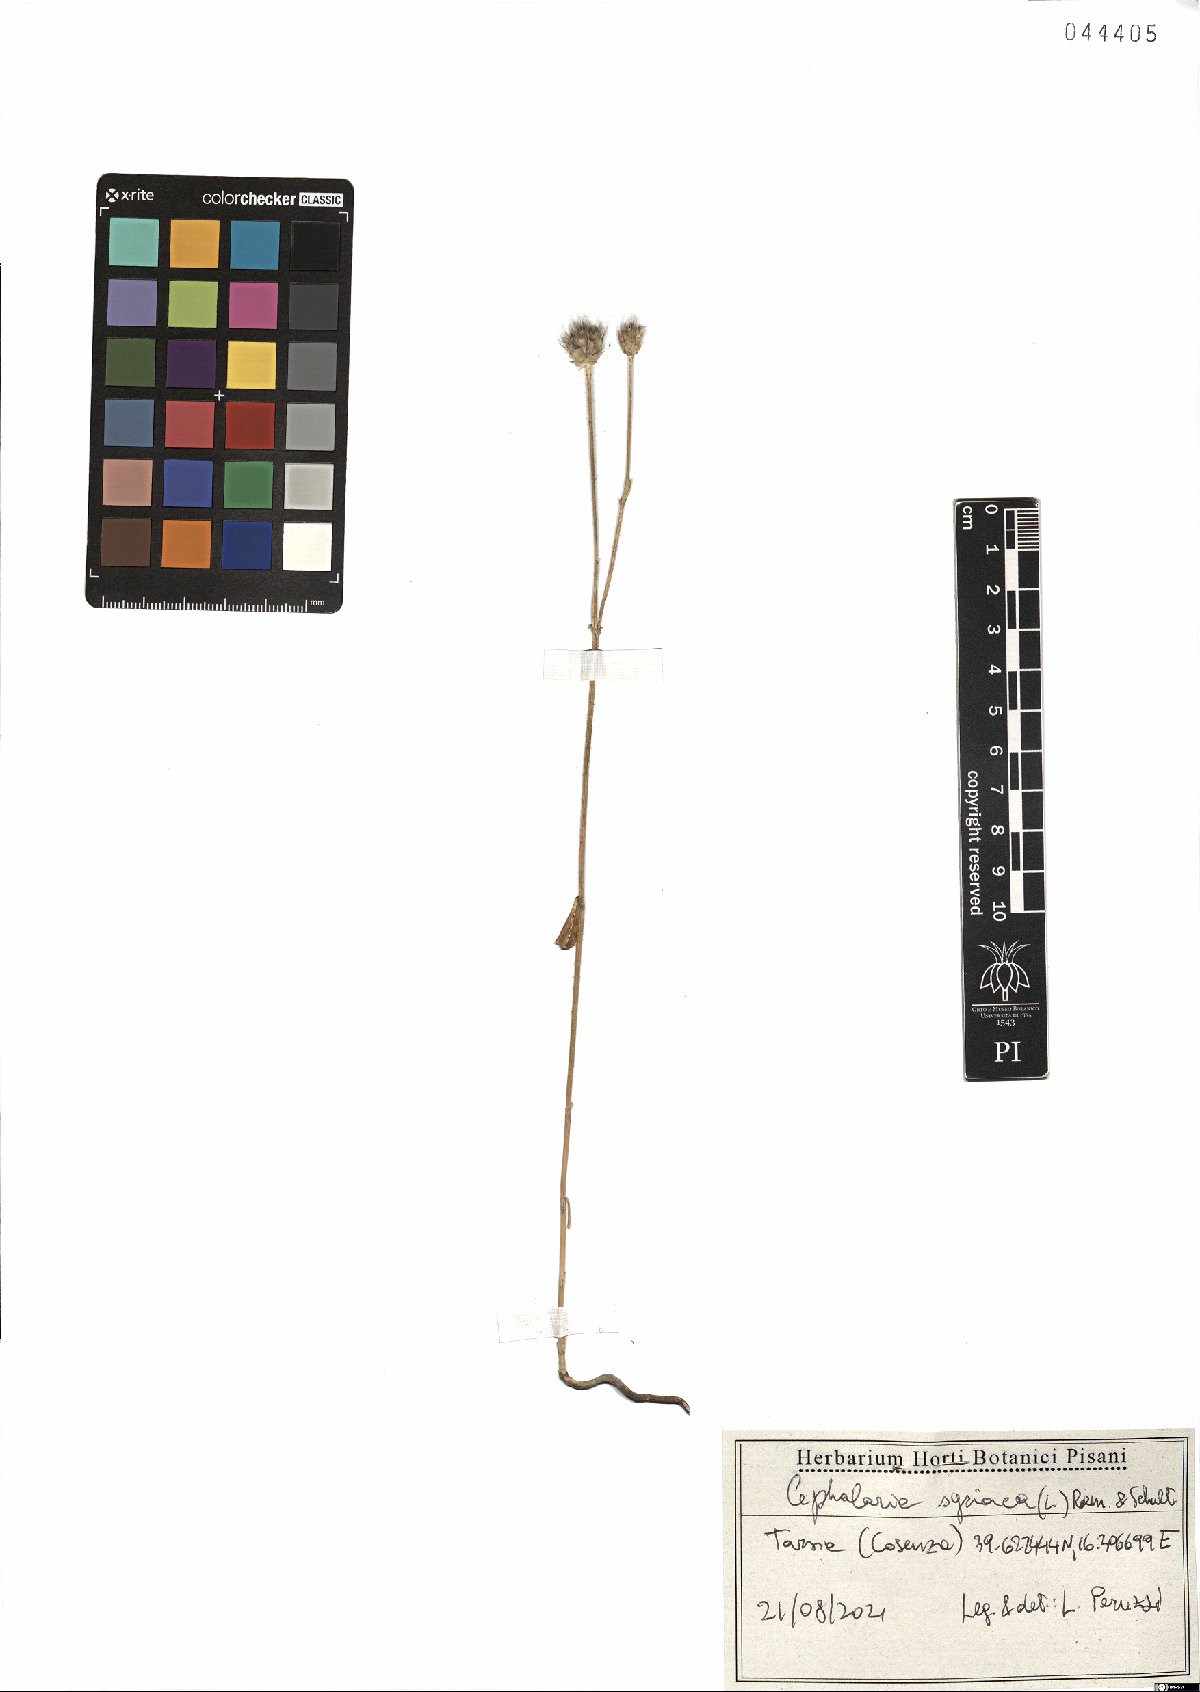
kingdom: Plantae
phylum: Tracheophyta
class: Magnoliopsida
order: Dipsacales
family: Dipsacaceae
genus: Cephalaria
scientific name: Cephalaria syriaca
